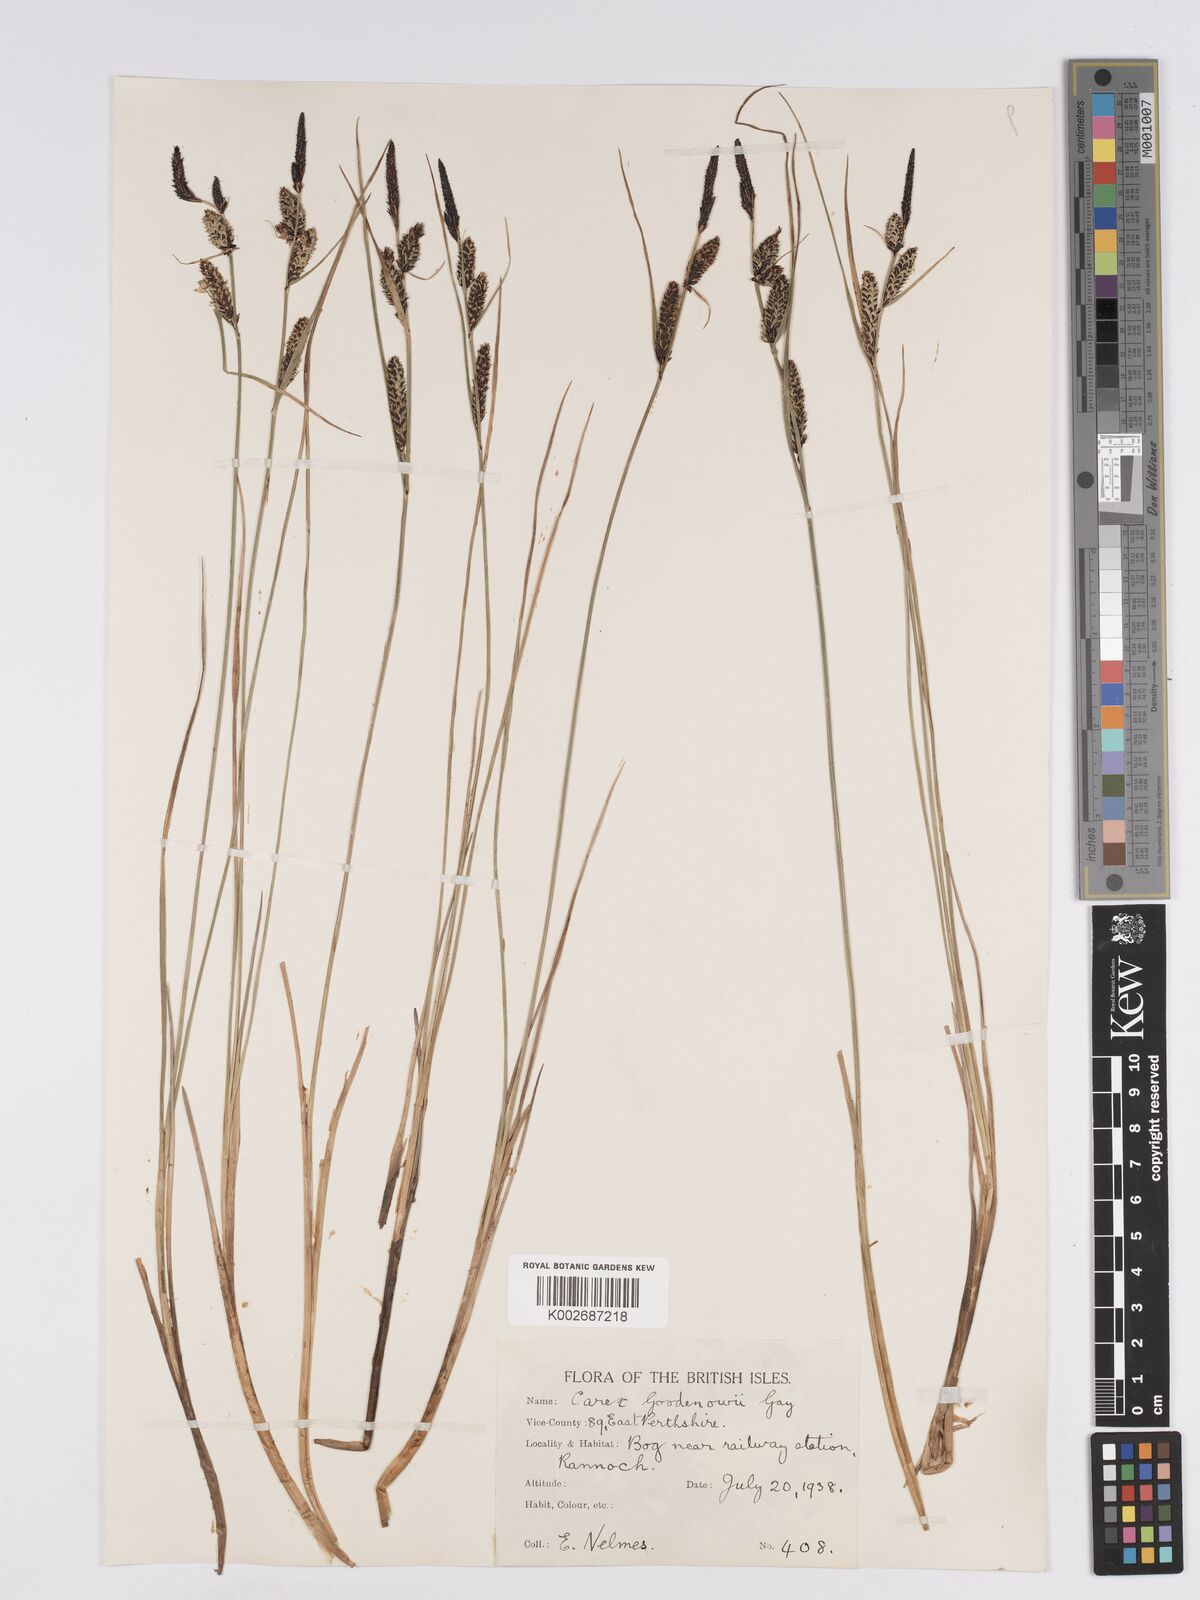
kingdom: Plantae
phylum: Tracheophyta
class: Liliopsida
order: Poales
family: Cyperaceae
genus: Carex
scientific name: Carex nigra
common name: Common sedge
